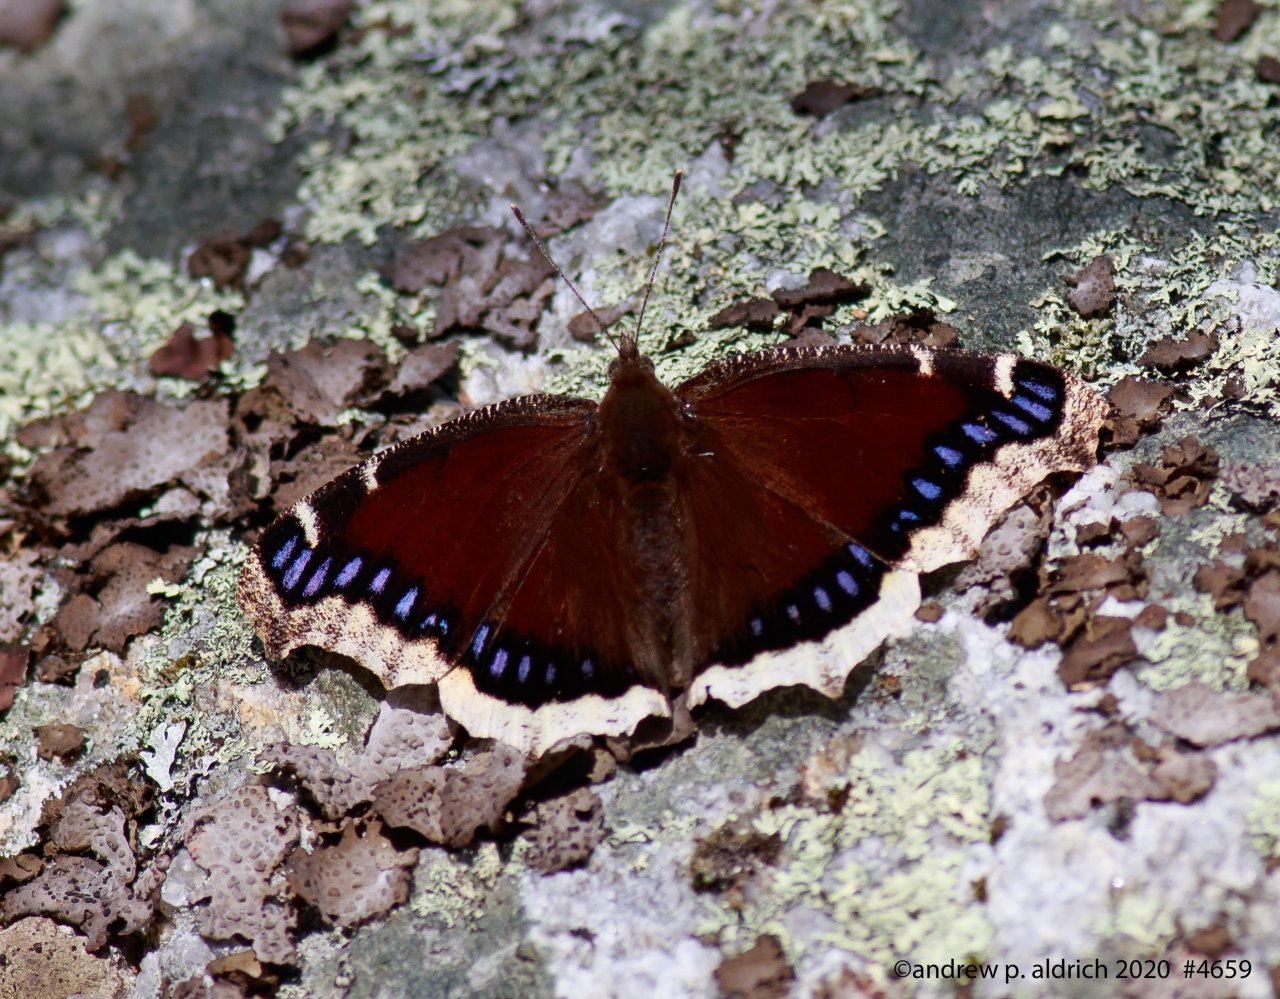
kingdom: Animalia
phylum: Arthropoda
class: Insecta
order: Lepidoptera
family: Nymphalidae
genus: Nymphalis
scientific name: Nymphalis antiopa
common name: Mourning Cloak
